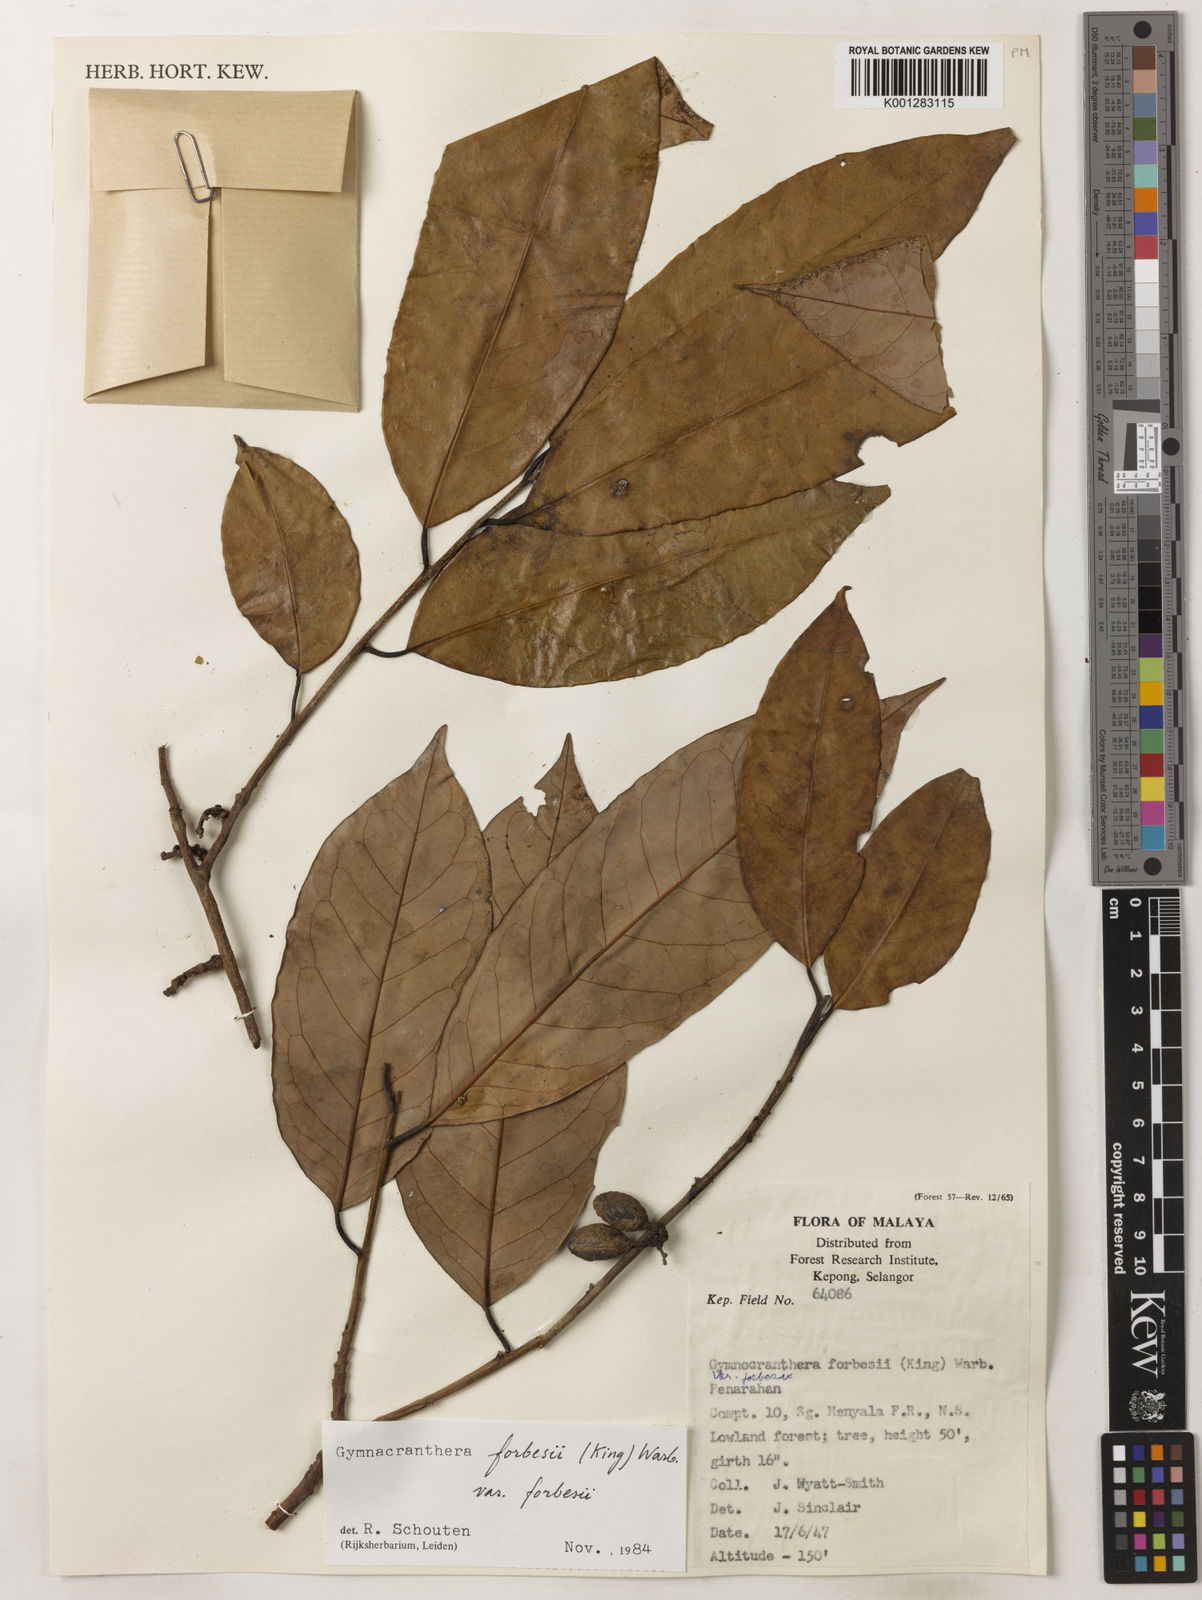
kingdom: Plantae
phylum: Tracheophyta
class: Magnoliopsida
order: Magnoliales
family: Myristicaceae
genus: Gymnacranthera
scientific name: Gymnacranthera forbesii
